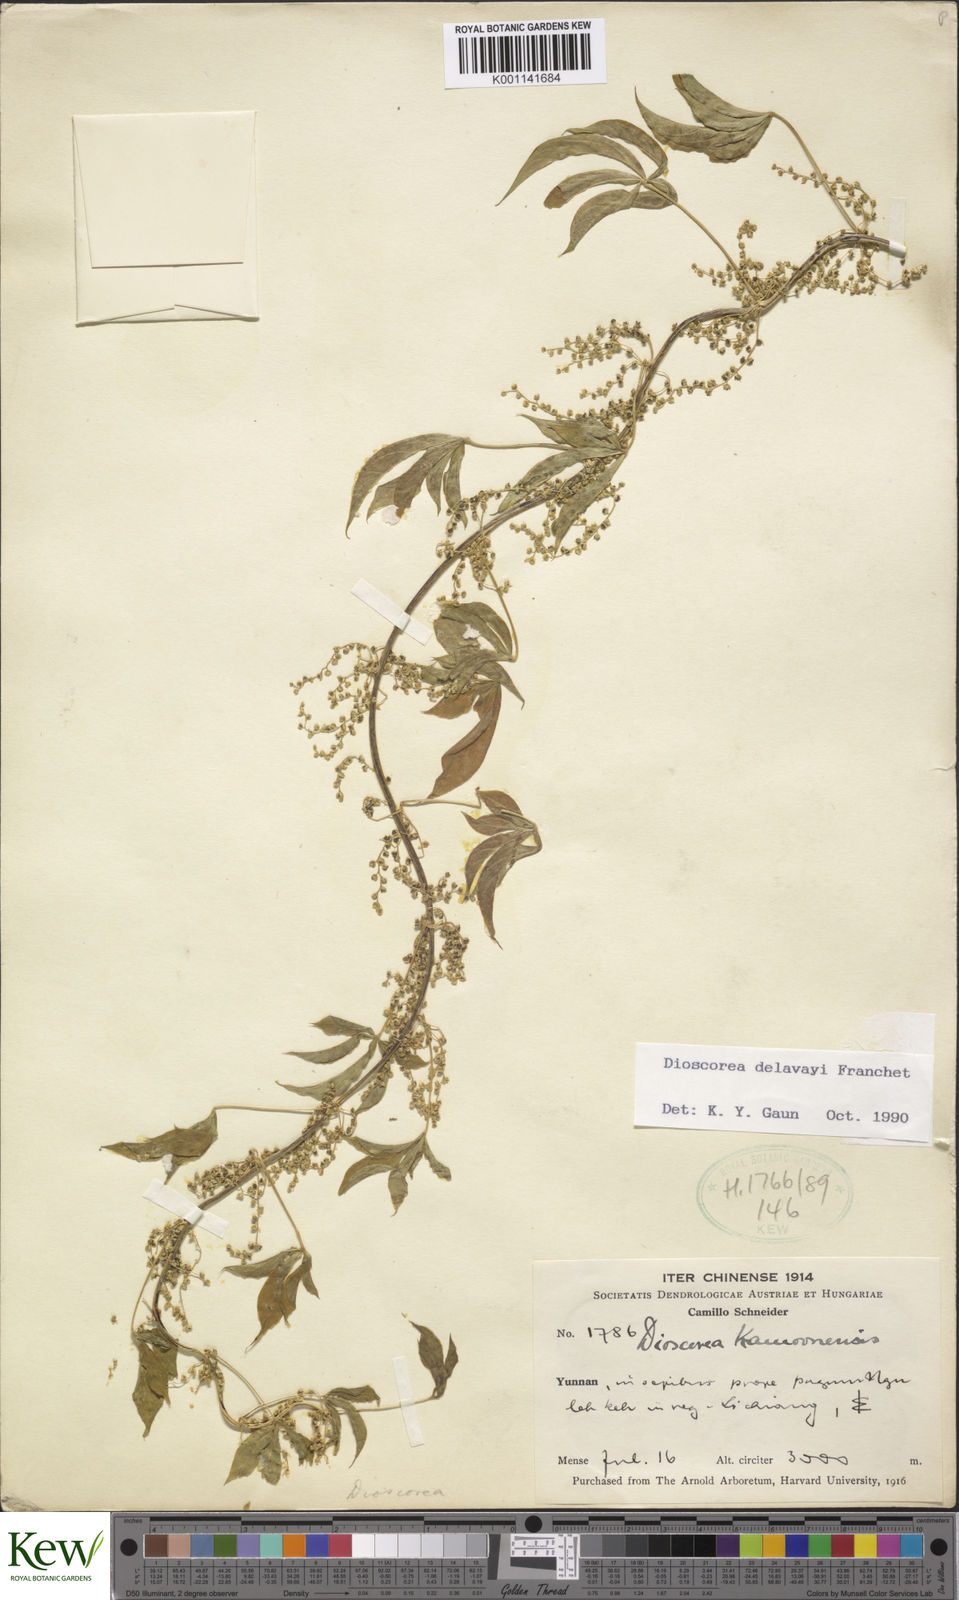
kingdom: Plantae
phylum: Tracheophyta
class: Liliopsida
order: Dioscoreales
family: Dioscoreaceae
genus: Dioscorea
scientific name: Dioscorea kamoonensis
